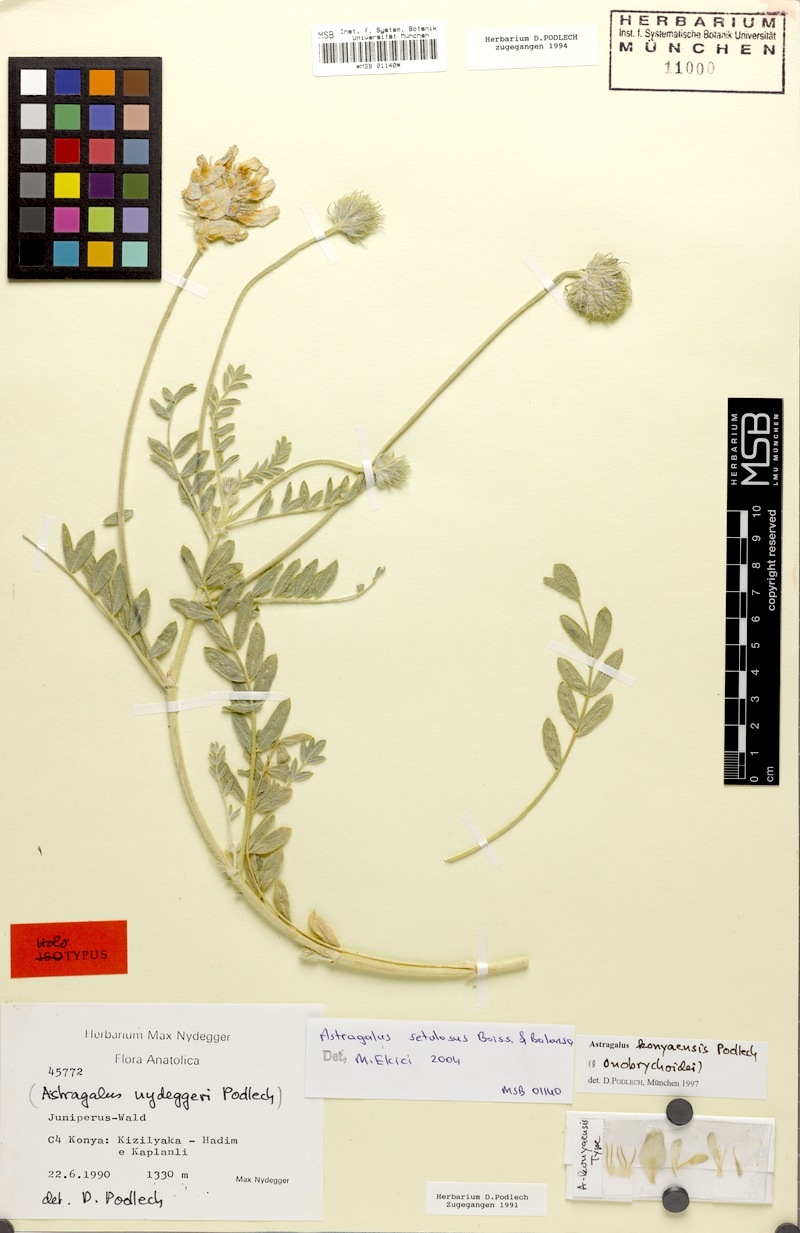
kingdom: Plantae
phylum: Tracheophyta
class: Magnoliopsida
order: Fabales
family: Fabaceae
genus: Astragalus
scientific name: Astragalus setulosus
